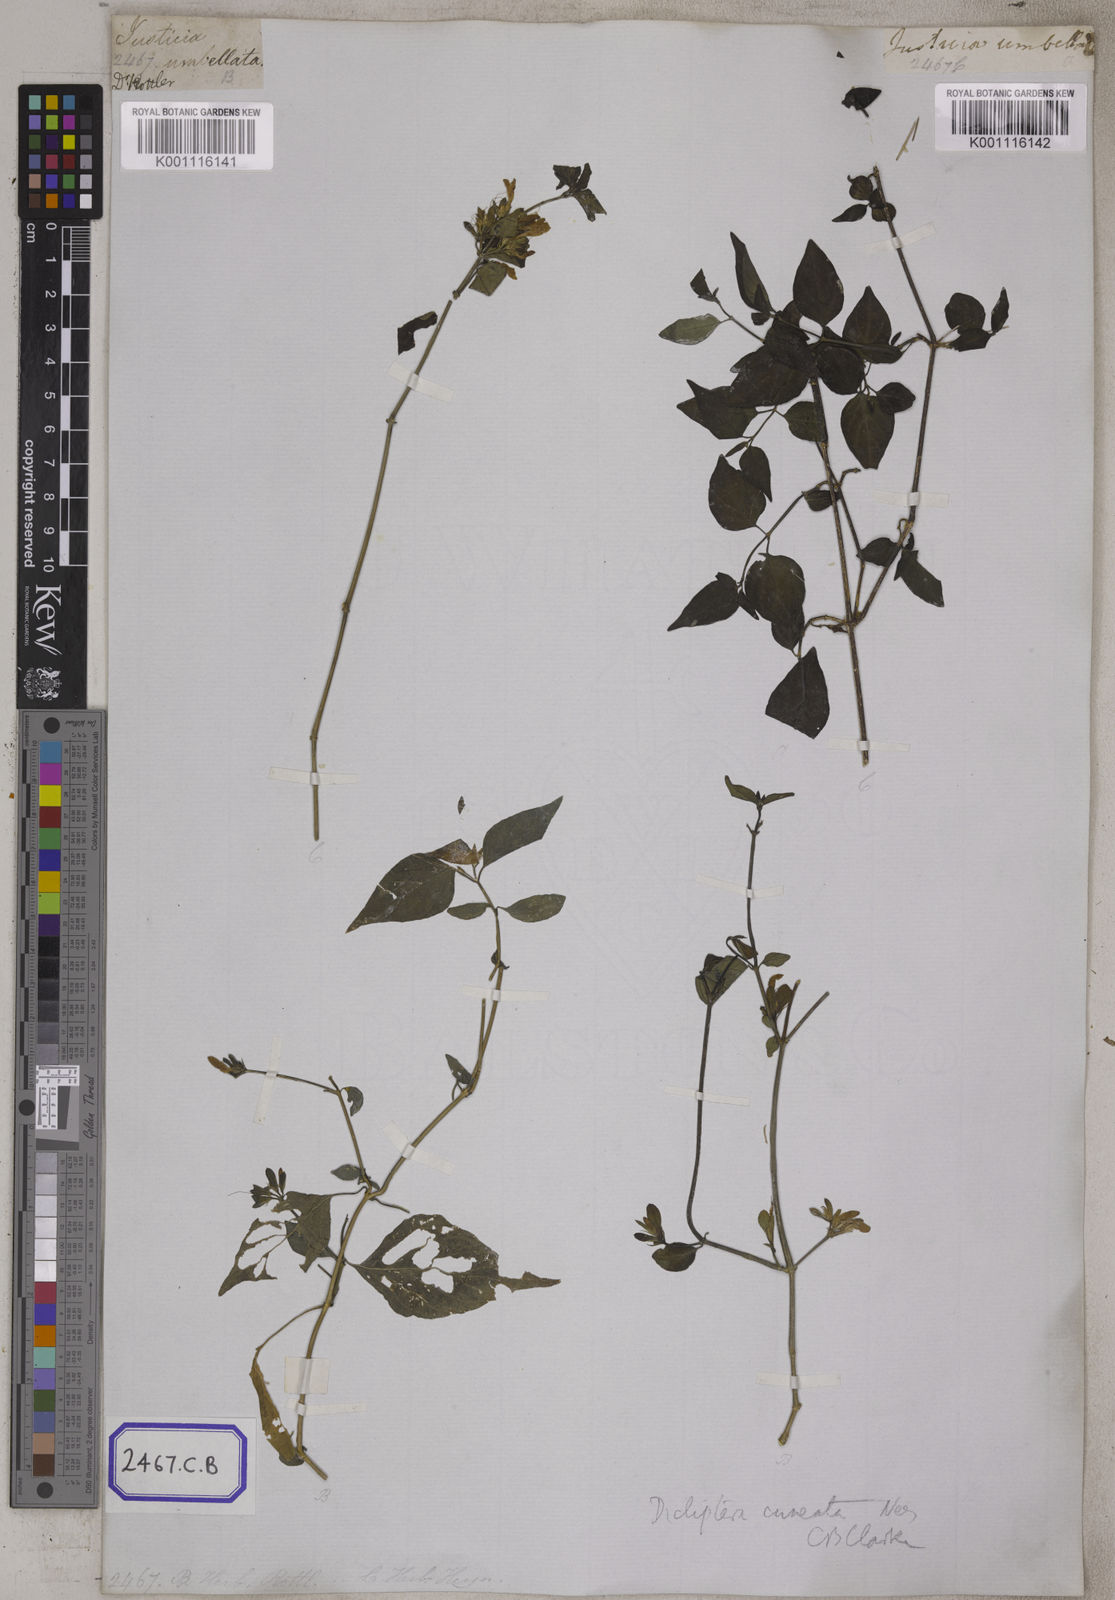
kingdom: Plantae
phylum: Tracheophyta
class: Magnoliopsida
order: Asterales
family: Asteraceae
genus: Diplostephium
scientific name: Diplostephium haenkei
